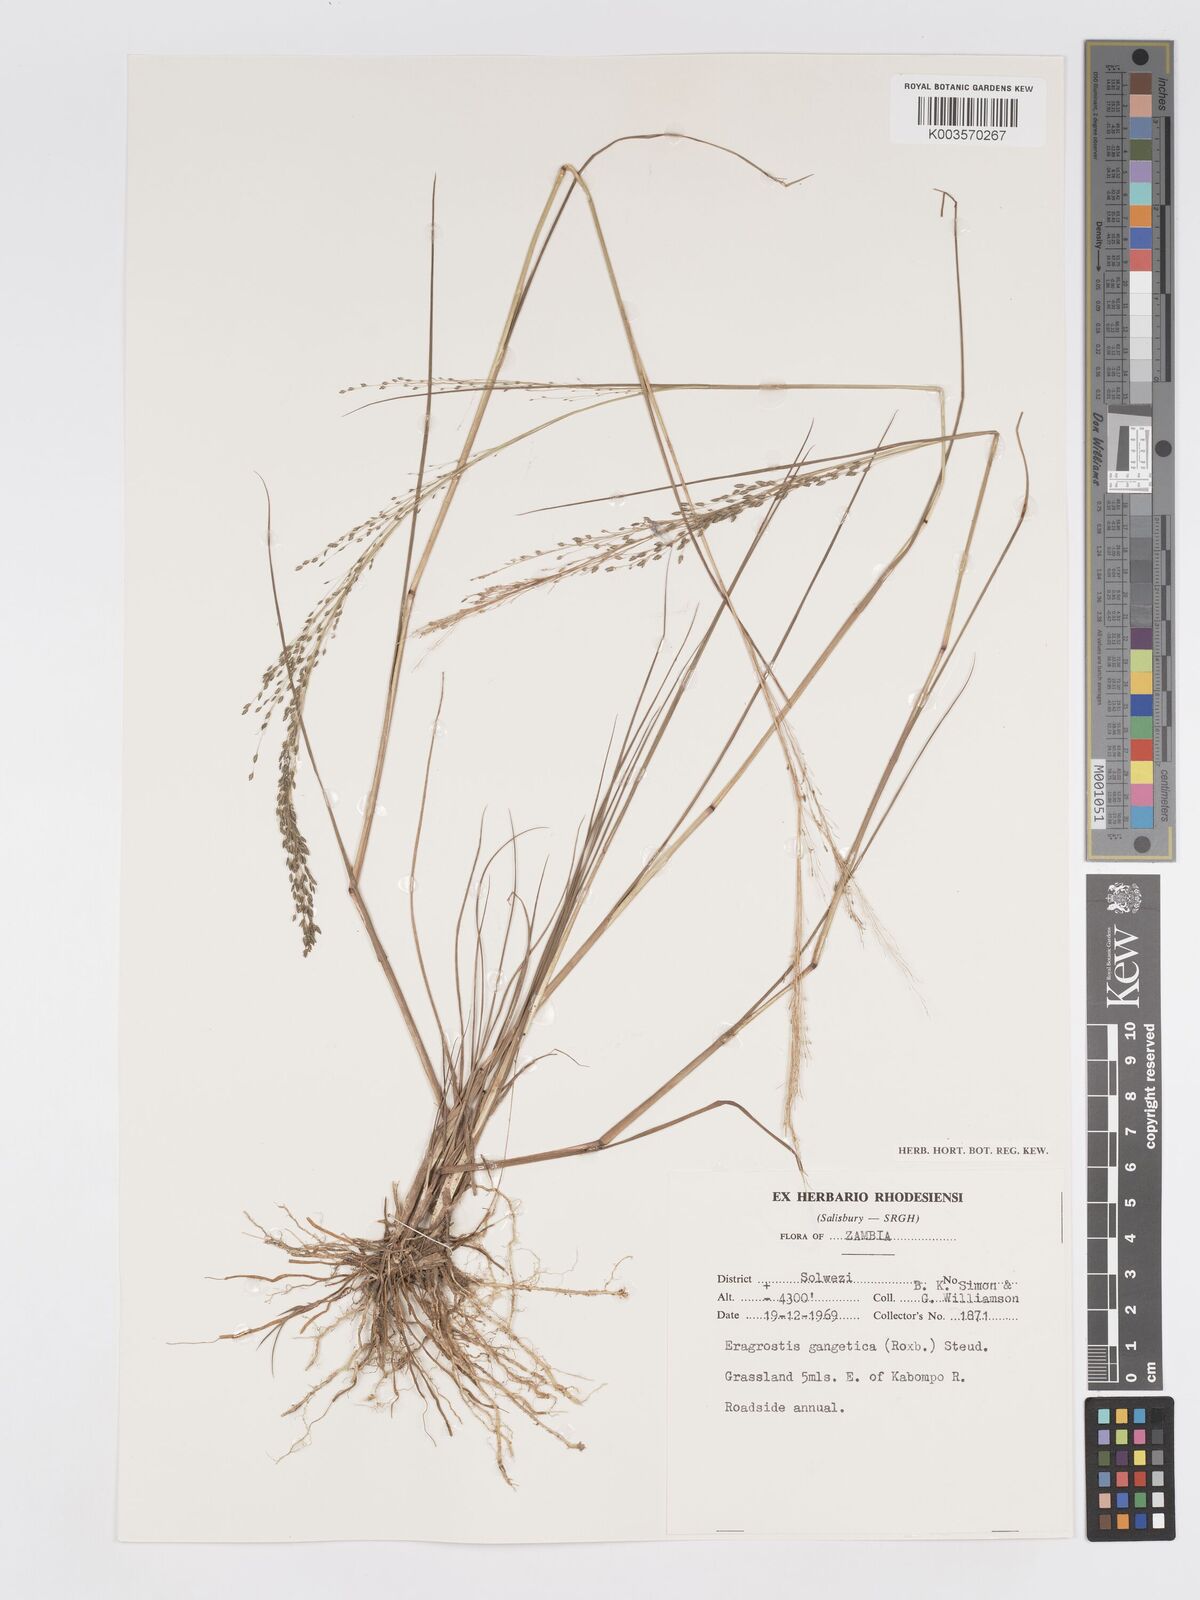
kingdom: Plantae
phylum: Tracheophyta
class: Liliopsida
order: Poales
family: Poaceae
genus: Eragrostis
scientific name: Eragrostis gangetica
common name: Slimflower lovegrass
